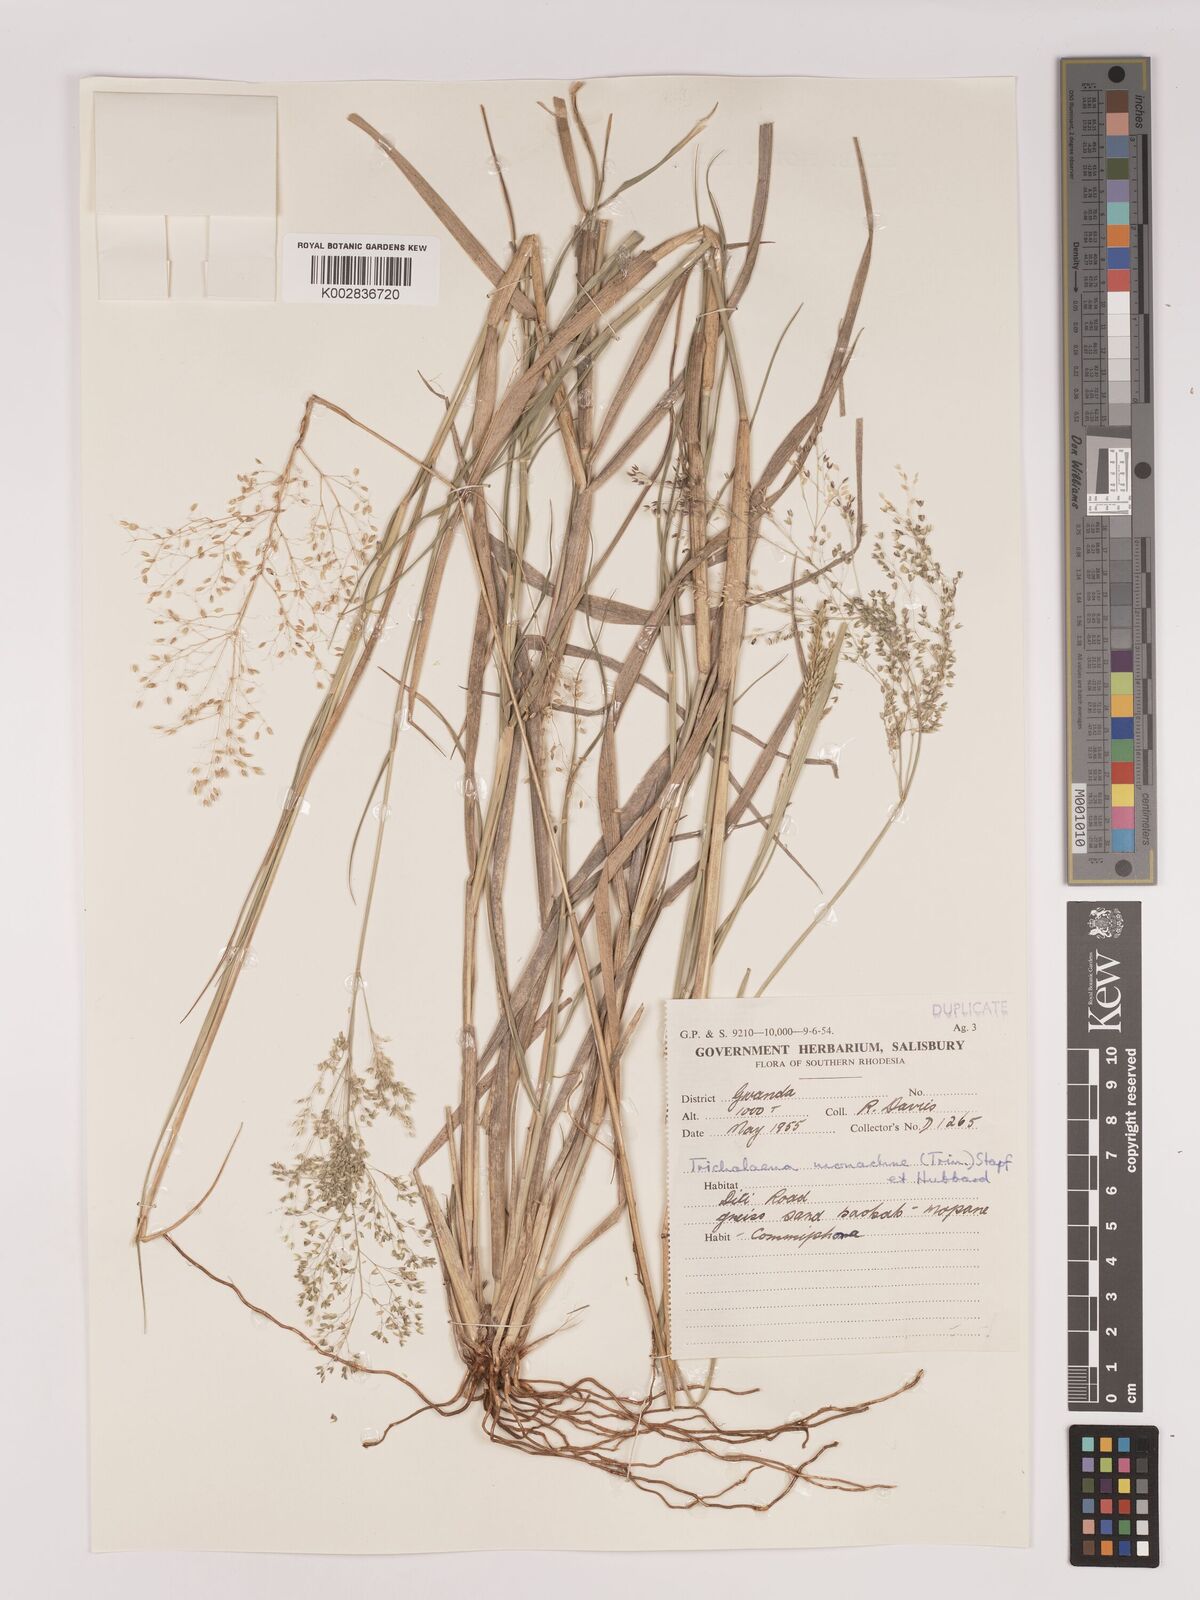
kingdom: Plantae
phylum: Tracheophyta
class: Liliopsida
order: Poales
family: Poaceae
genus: Tricholaena
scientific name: Tricholaena monachne
